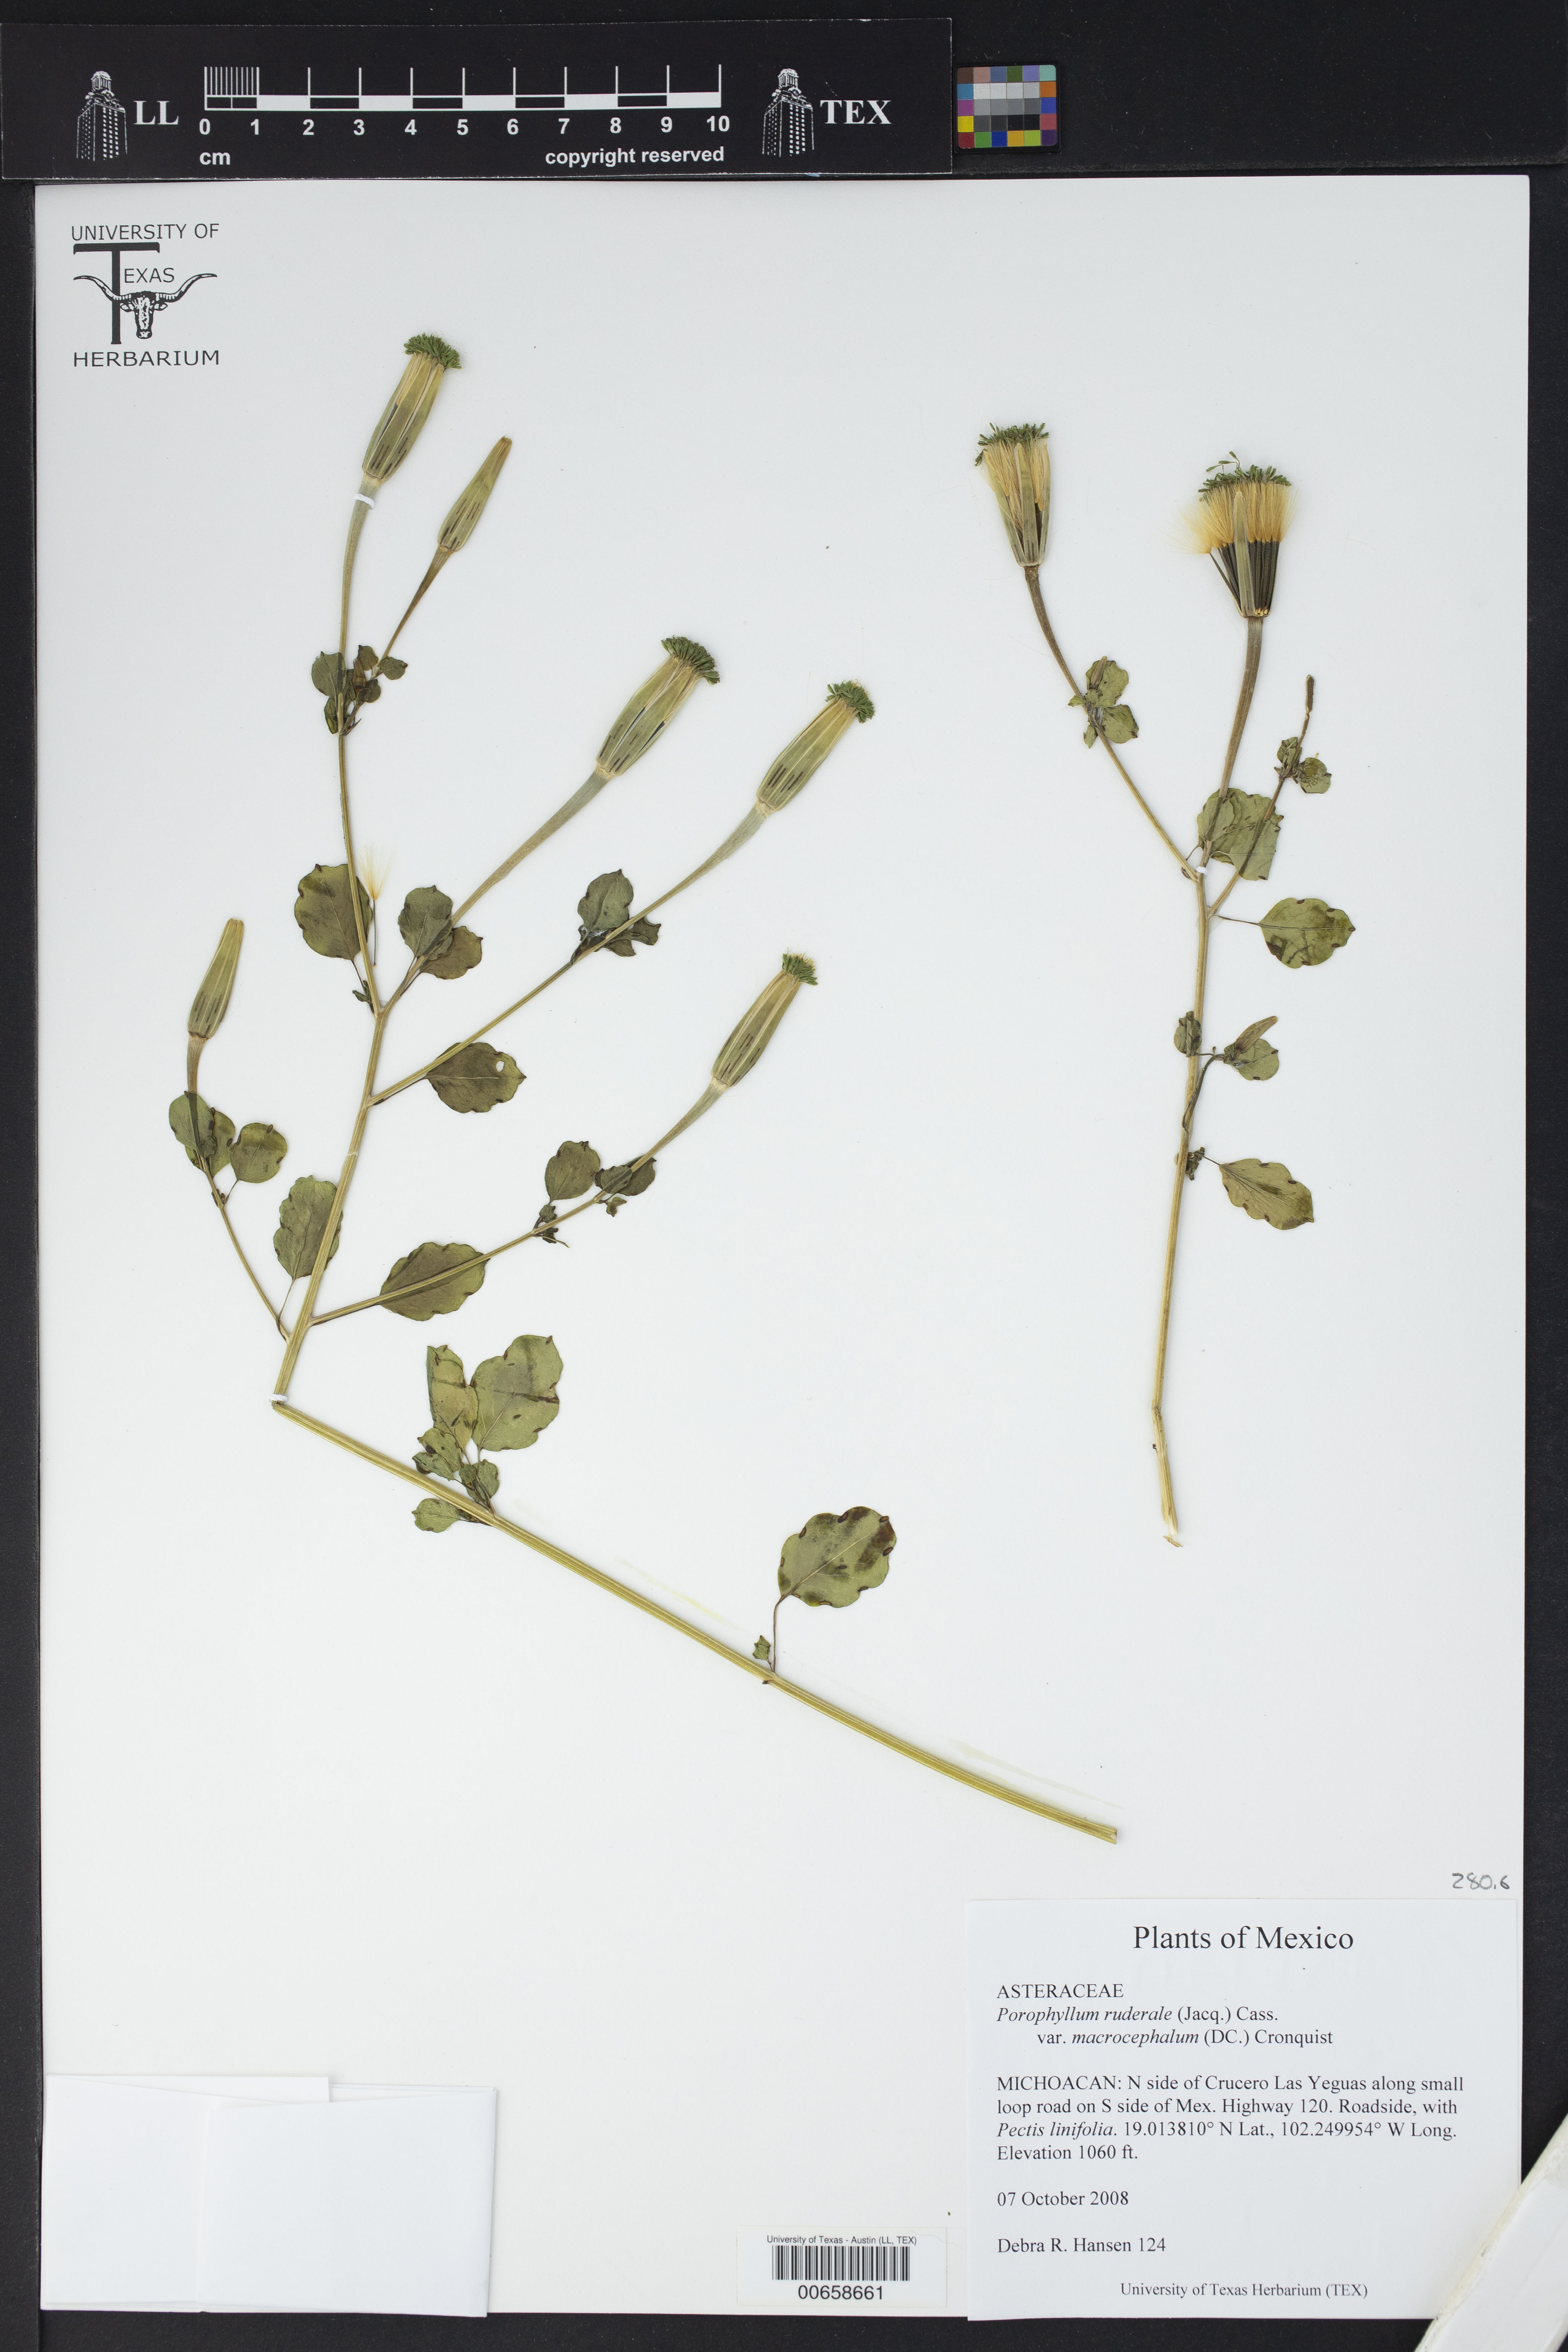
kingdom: Plantae
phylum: Tracheophyta
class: Magnoliopsida
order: Asterales
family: Asteraceae
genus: Porophyllum
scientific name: Porophyllum ruderale
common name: Yerba porosa
